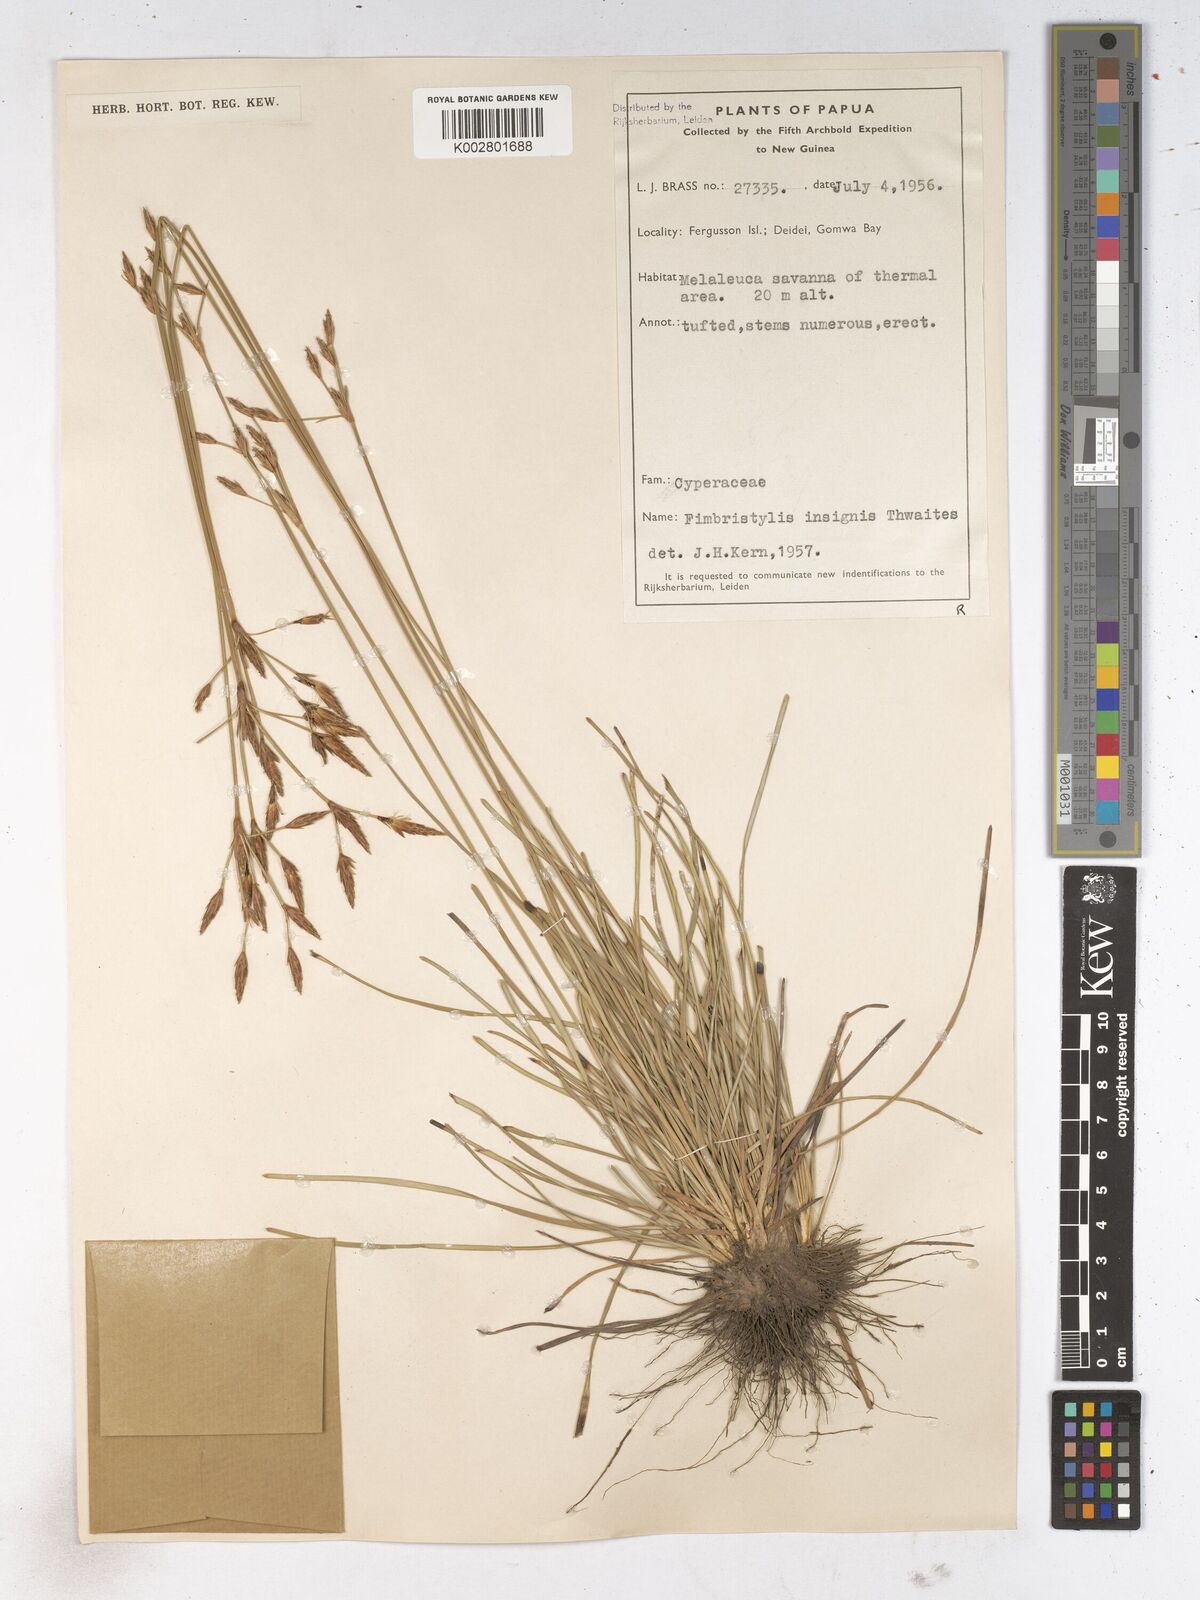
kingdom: Plantae
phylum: Tracheophyta
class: Liliopsida
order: Poales
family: Cyperaceae
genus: Fimbristylis
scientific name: Fimbristylis insignis
